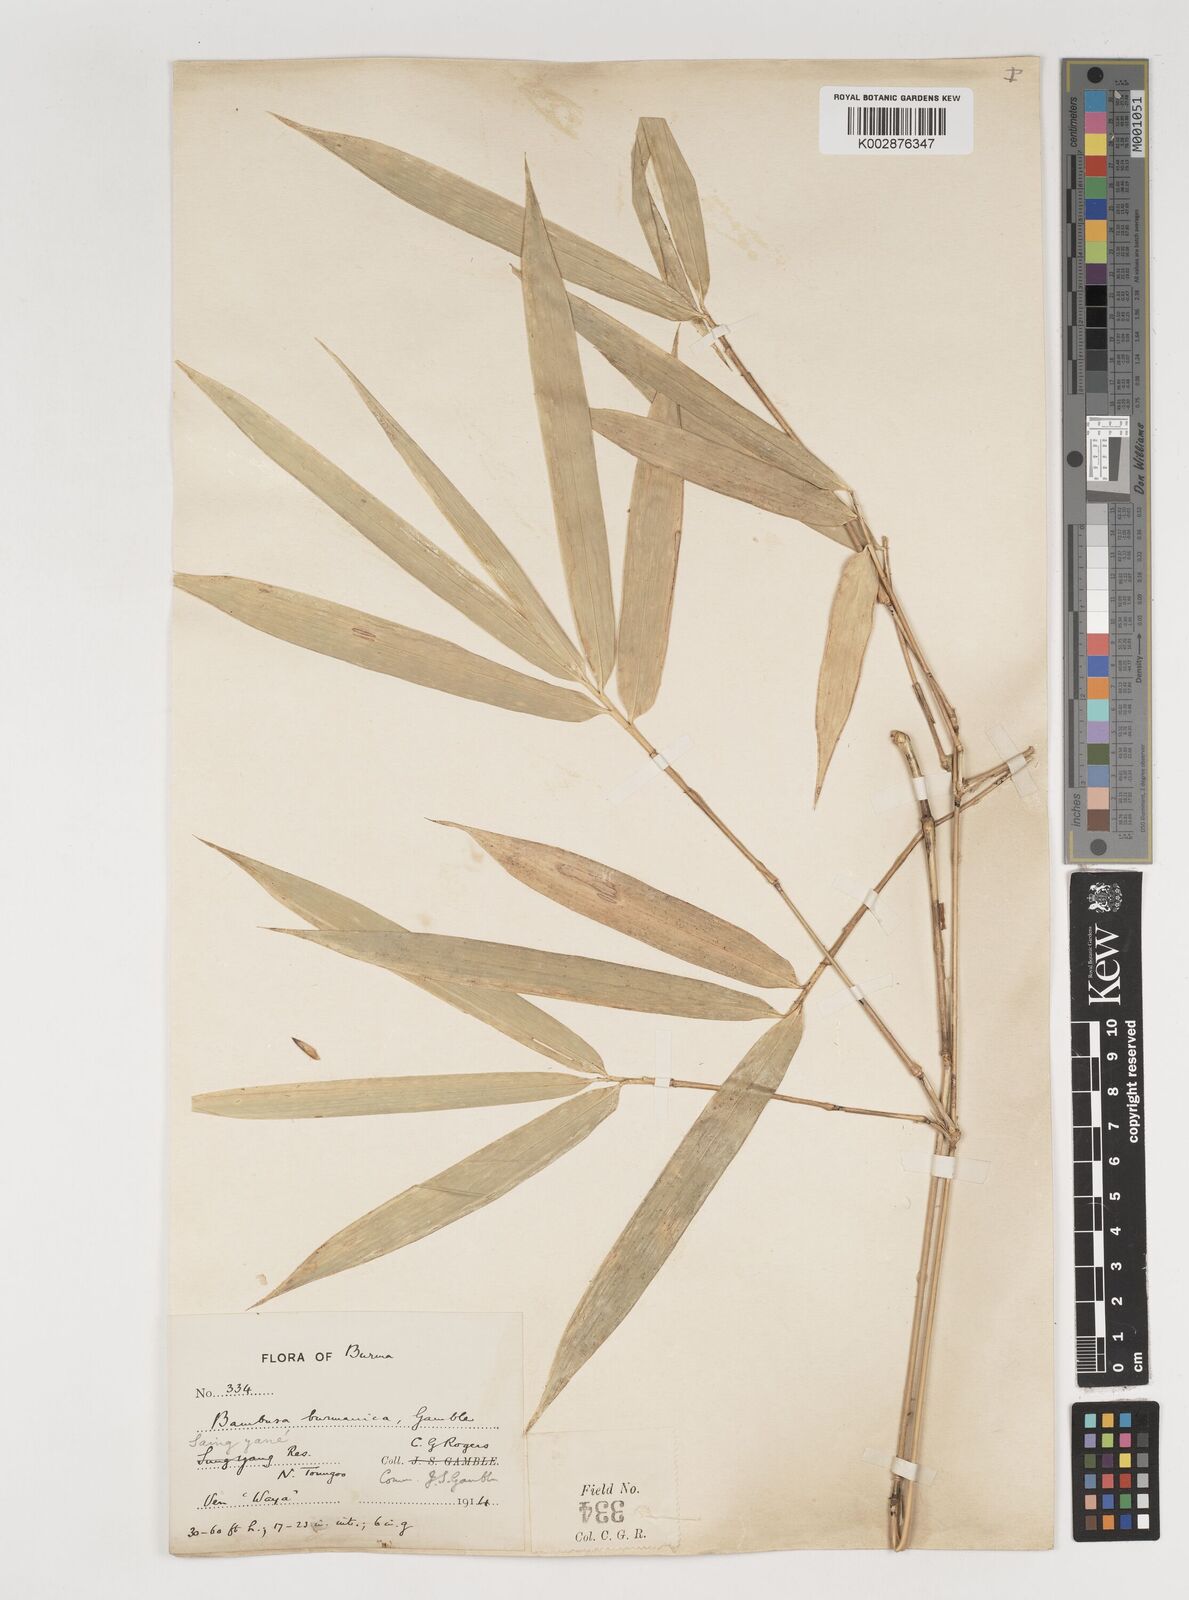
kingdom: Plantae
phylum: Tracheophyta
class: Liliopsida
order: Poales
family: Poaceae
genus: Bambusa
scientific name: Bambusa burmanica
